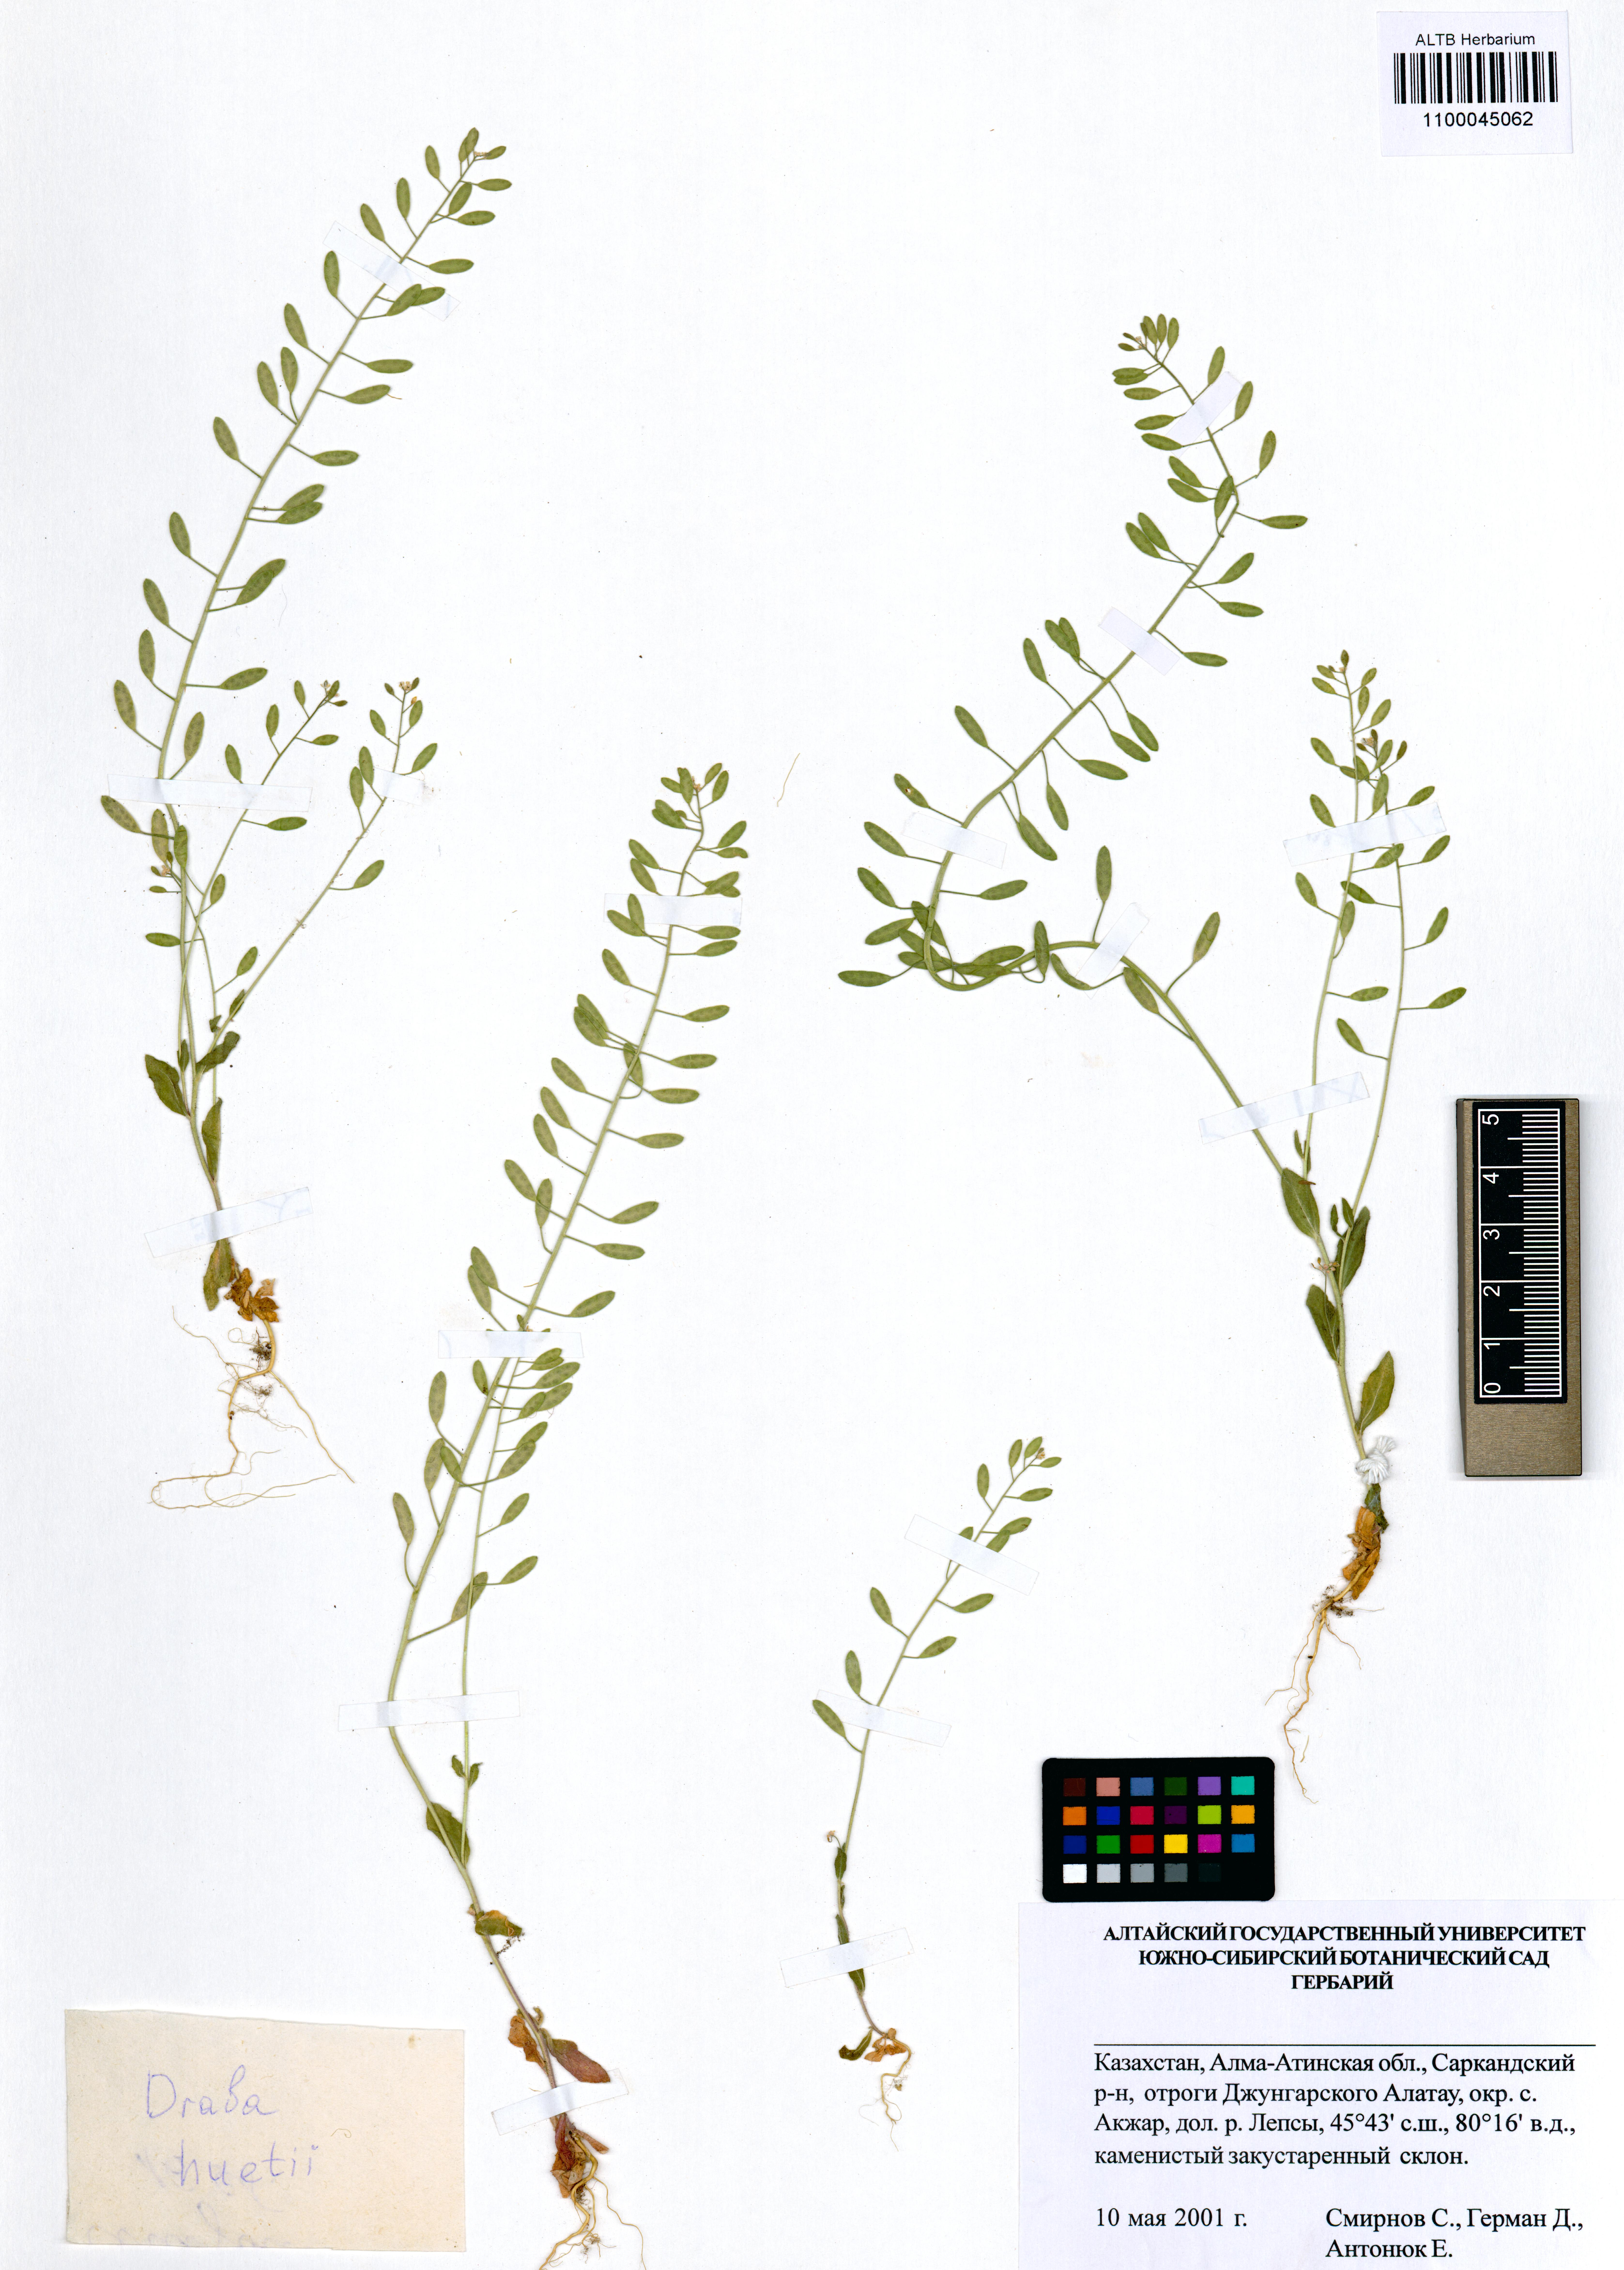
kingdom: Plantae
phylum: Tracheophyta
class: Magnoliopsida
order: Brassicales
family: Brassicaceae
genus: Draba
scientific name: Draba huetii
